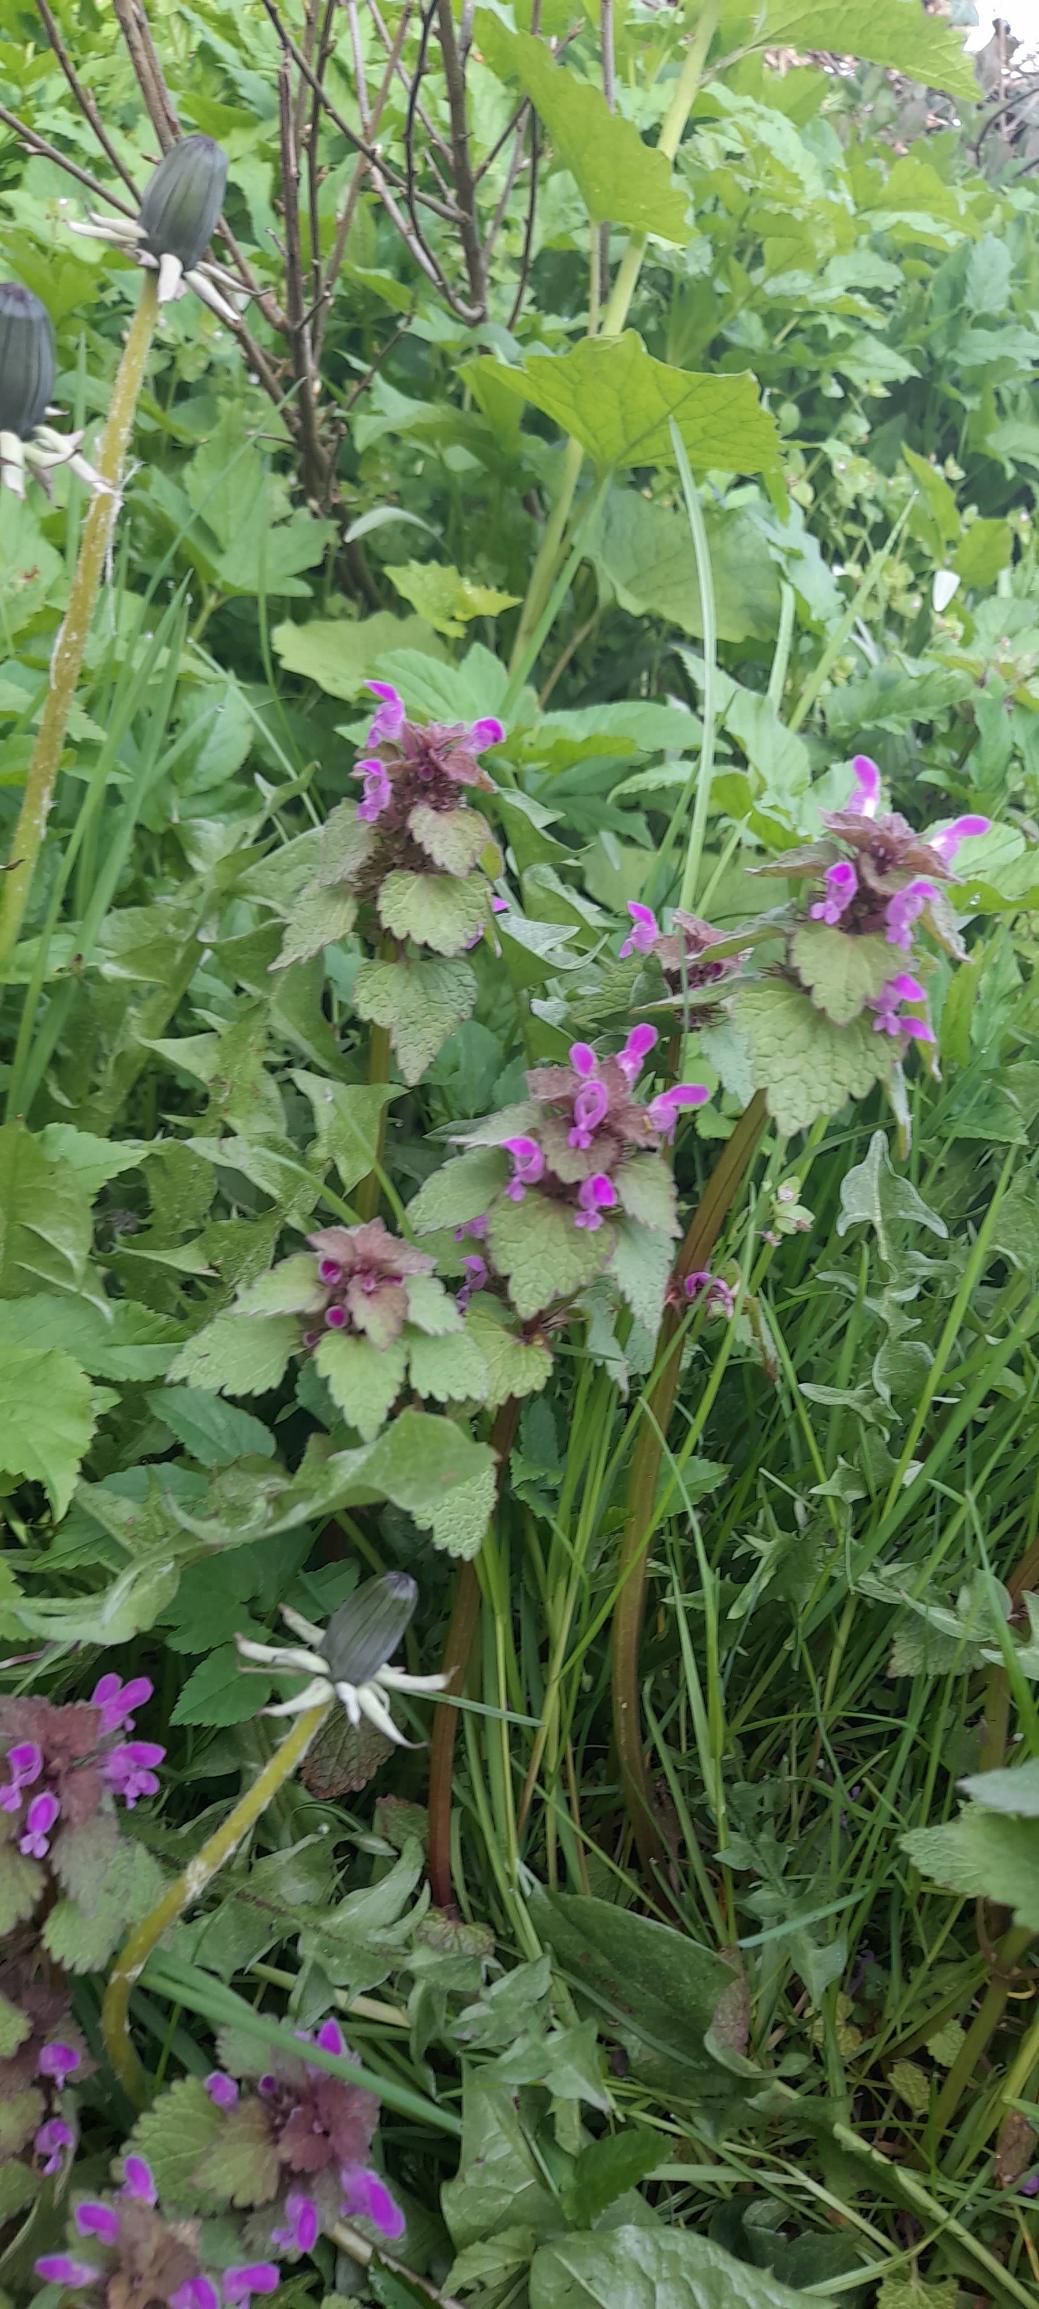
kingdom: Plantae
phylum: Tracheophyta
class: Magnoliopsida
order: Lamiales
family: Lamiaceae
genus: Lamium
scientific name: Lamium purpureum
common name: Rød tvetand
